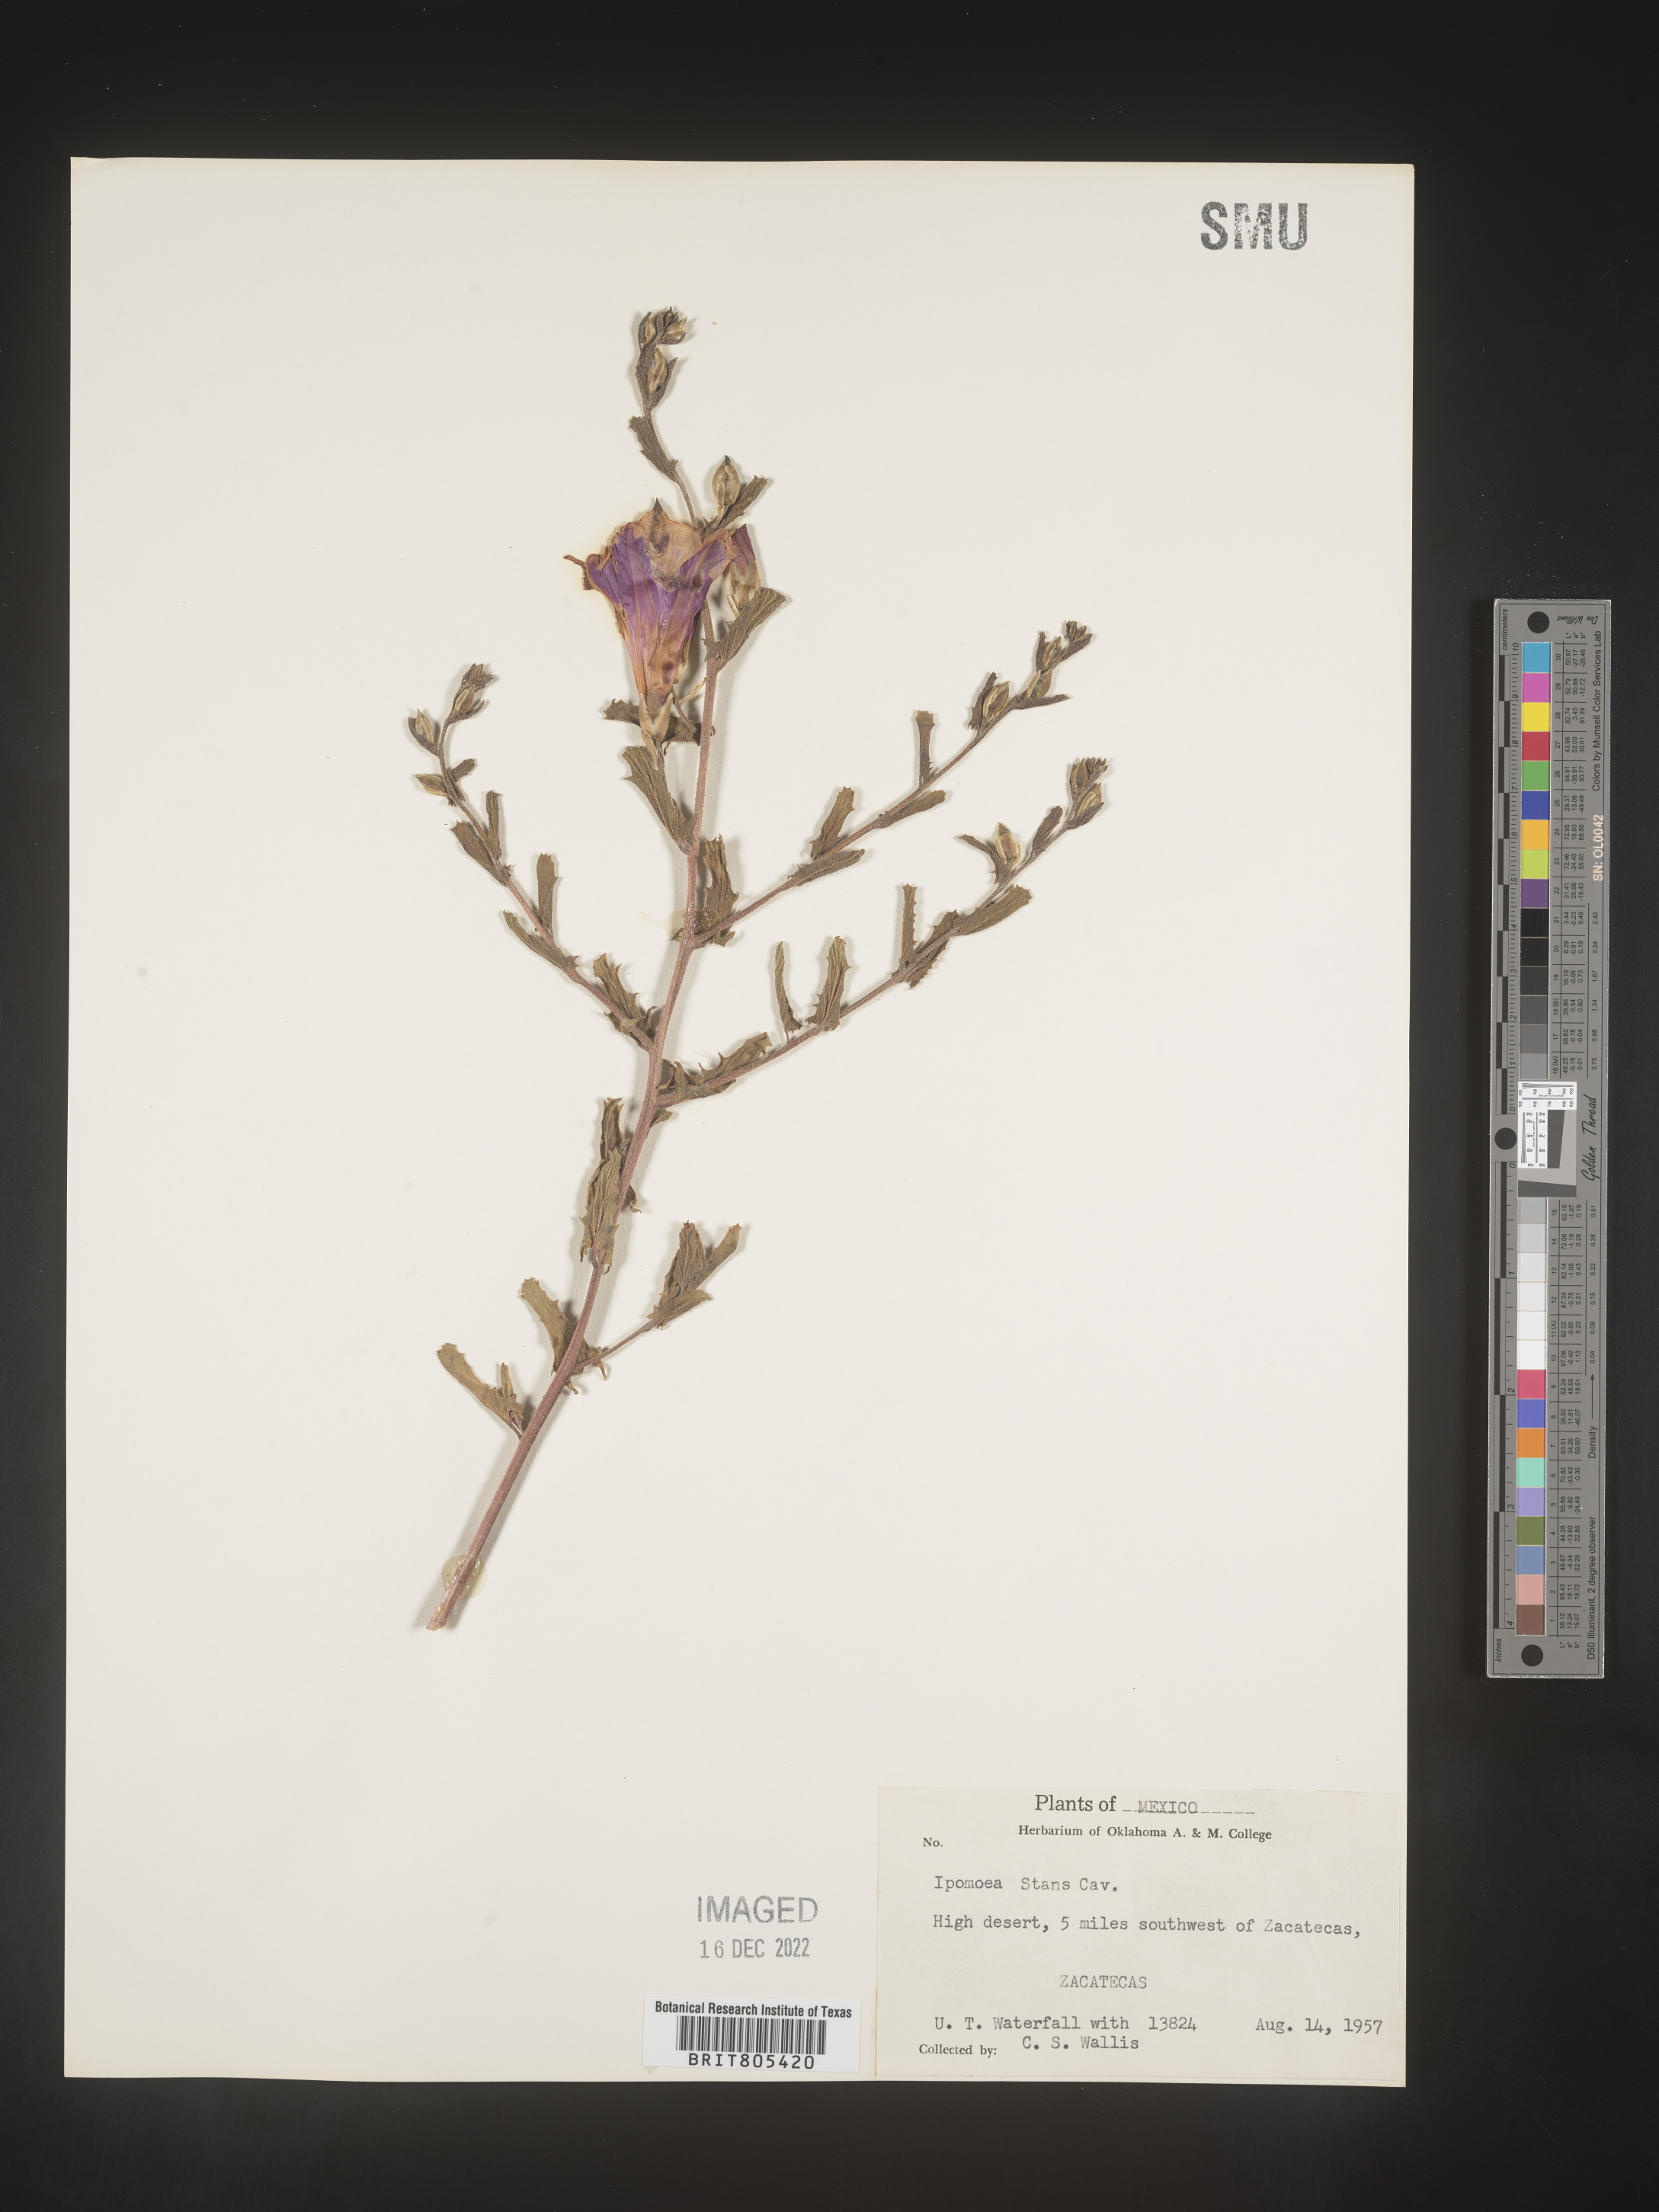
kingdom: Plantae
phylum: Tracheophyta
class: Magnoliopsida
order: Solanales
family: Convolvulaceae
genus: Ipomoea
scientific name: Ipomoea
